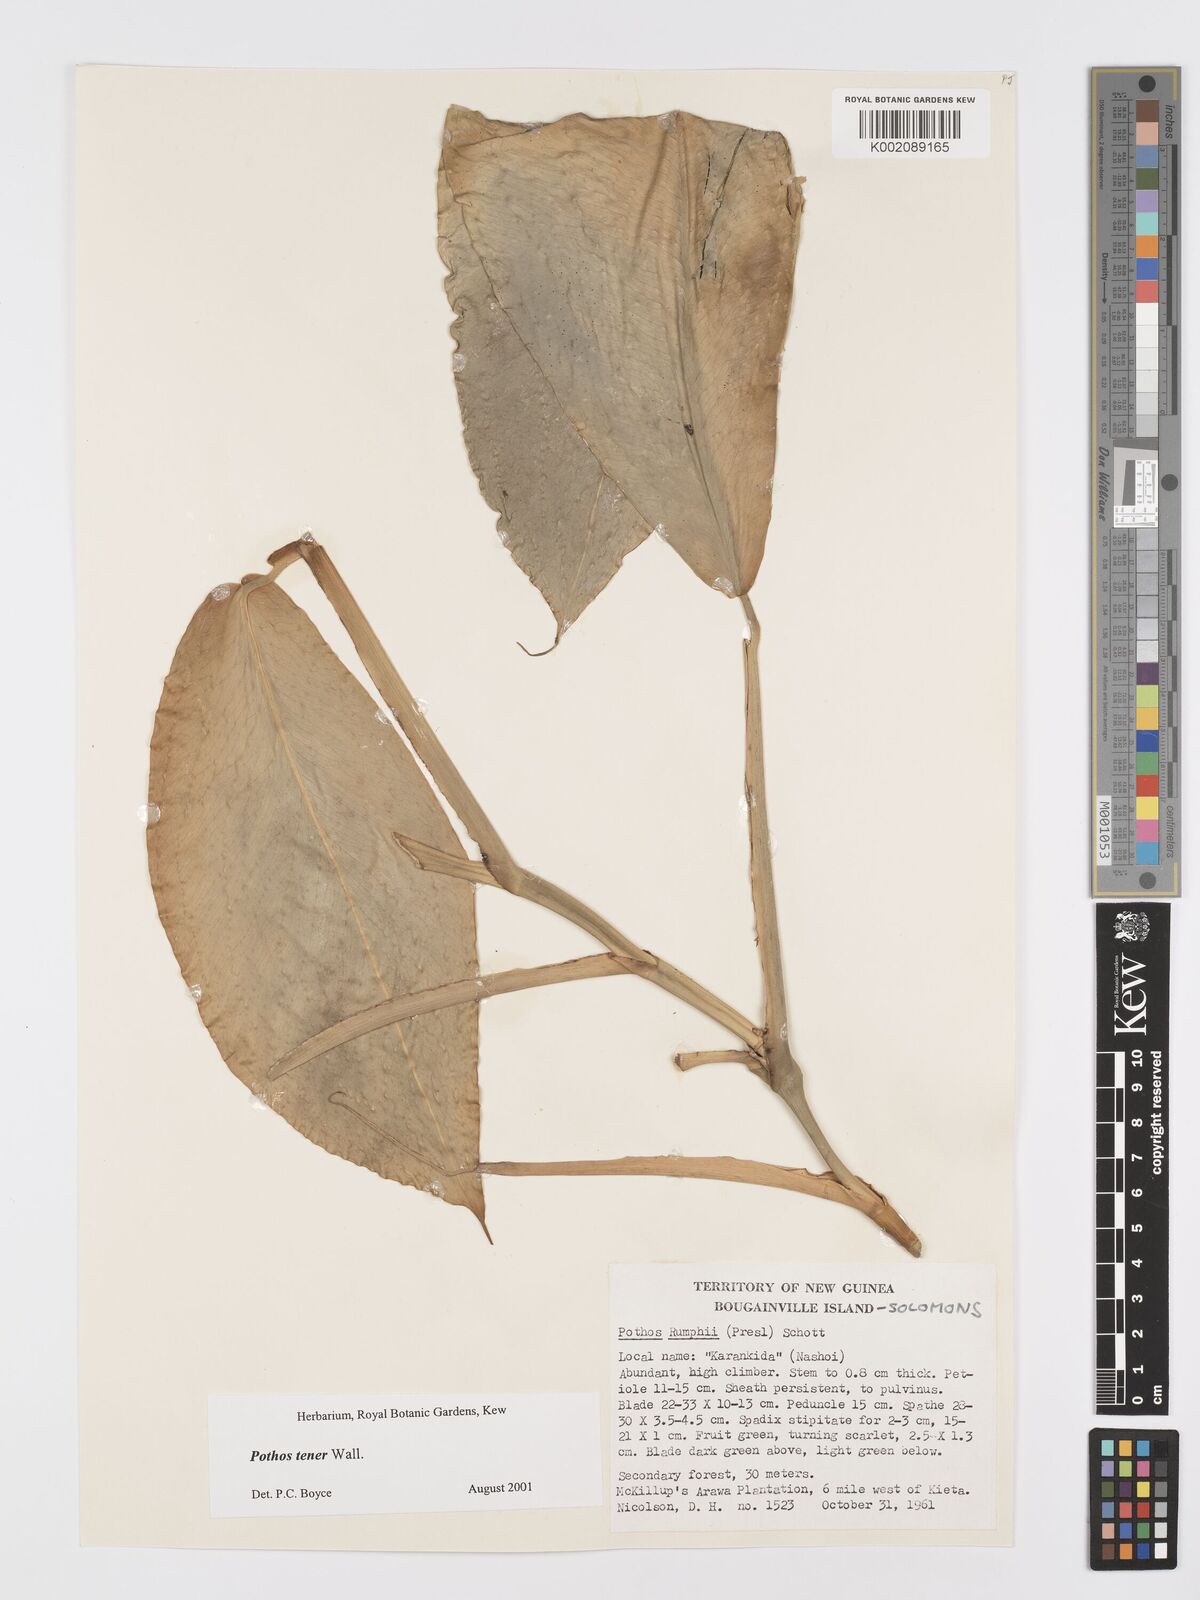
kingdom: Plantae
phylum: Tracheophyta
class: Liliopsida
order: Alismatales
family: Araceae
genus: Pothos
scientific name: Pothos tener
